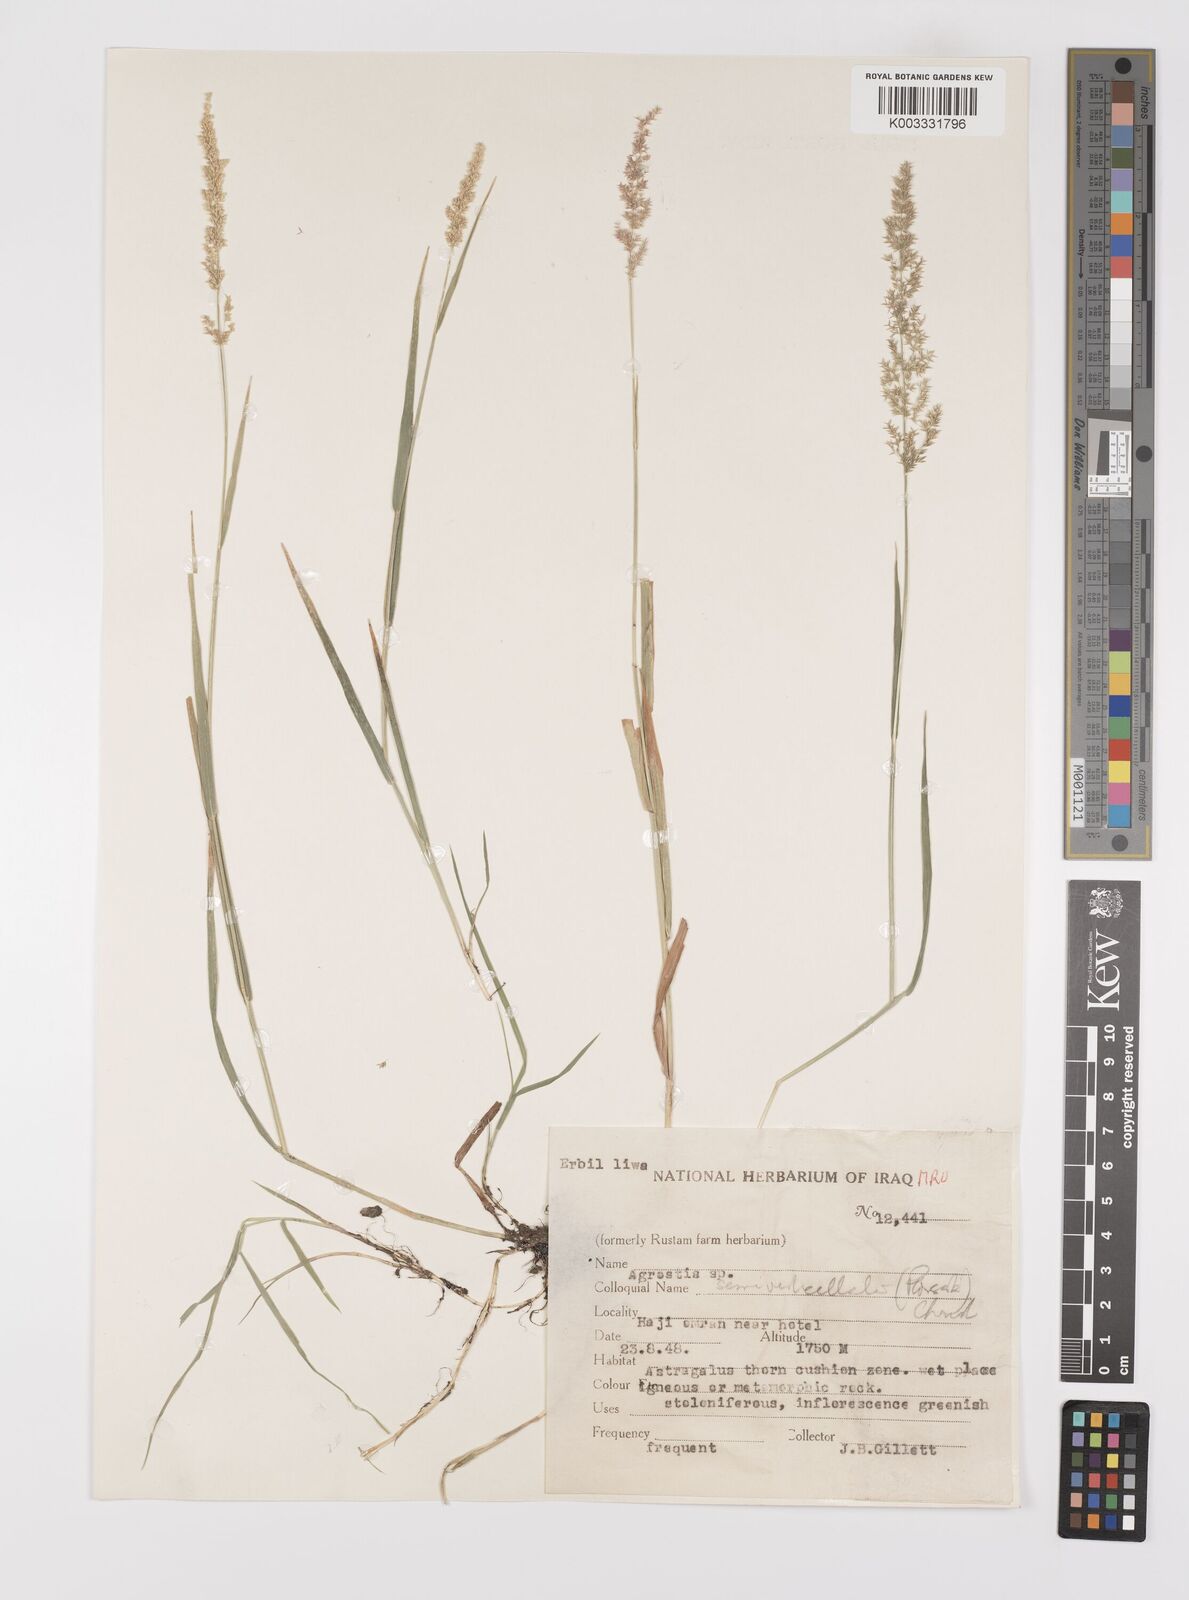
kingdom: Plantae
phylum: Tracheophyta
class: Liliopsida
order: Poales
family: Poaceae
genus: Polypogon
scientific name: Polypogon viridis
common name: Water bent
